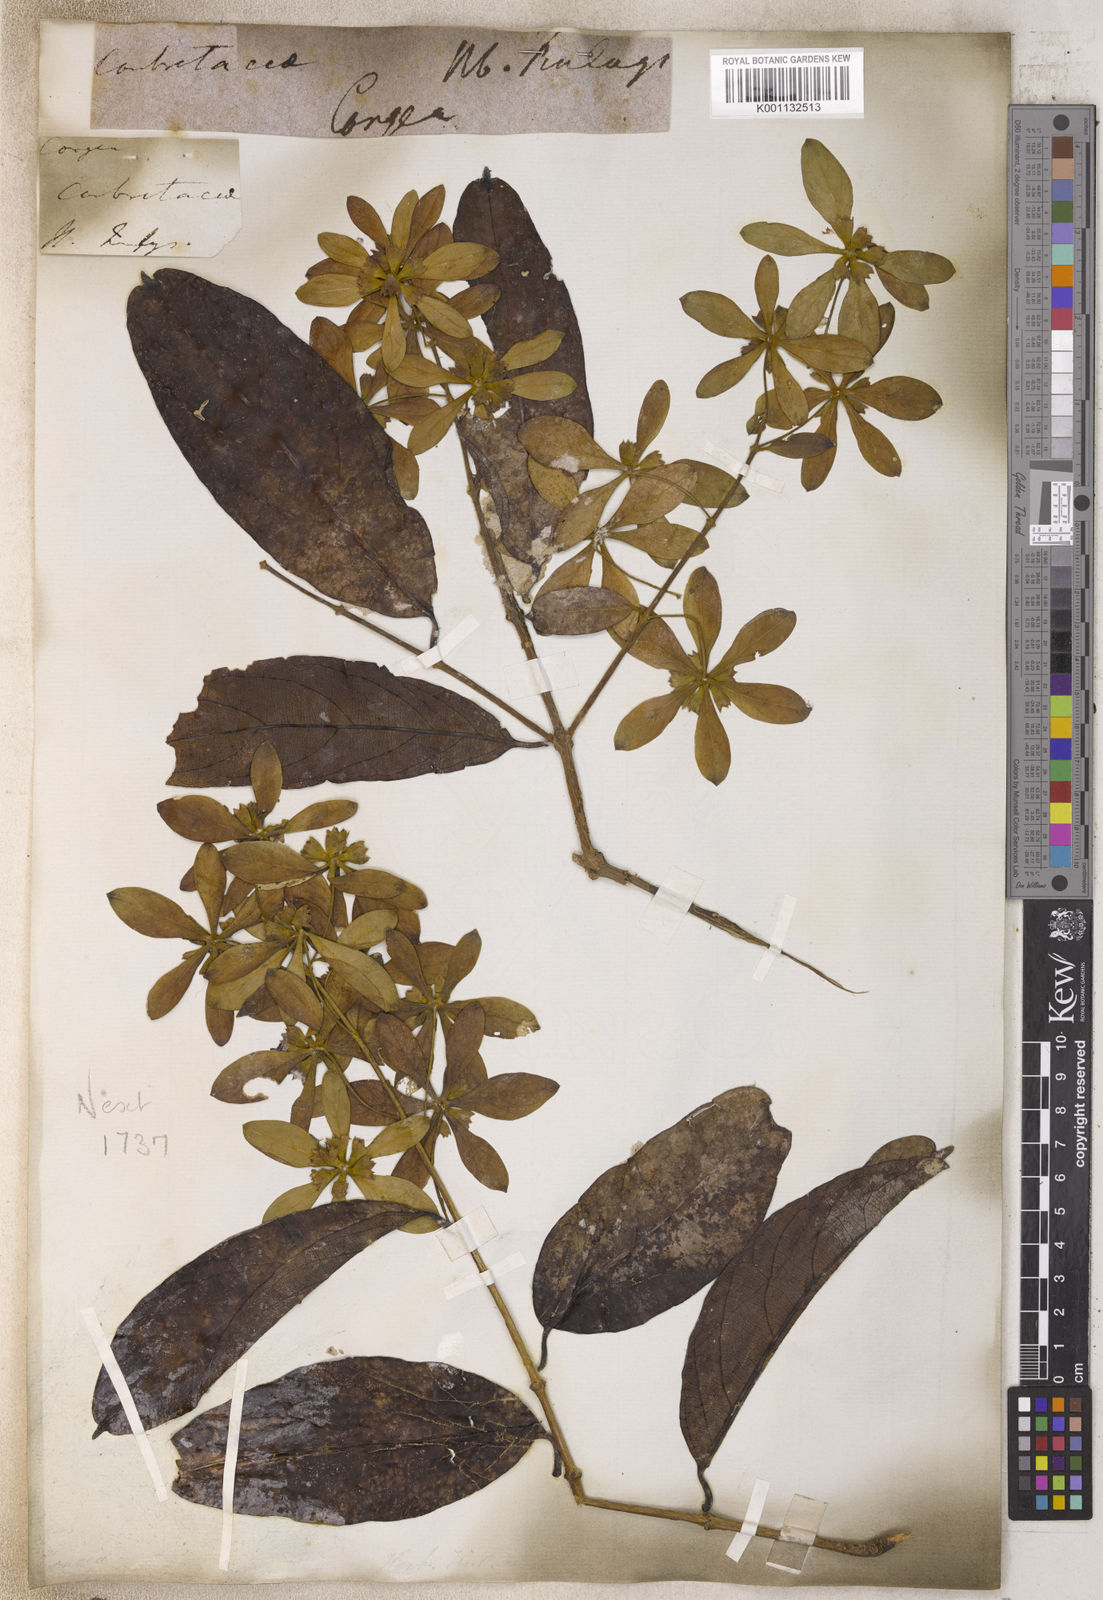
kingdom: Plantae
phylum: Tracheophyta
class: Magnoliopsida
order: Lamiales
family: Lamiaceae
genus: Congea
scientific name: Congea
